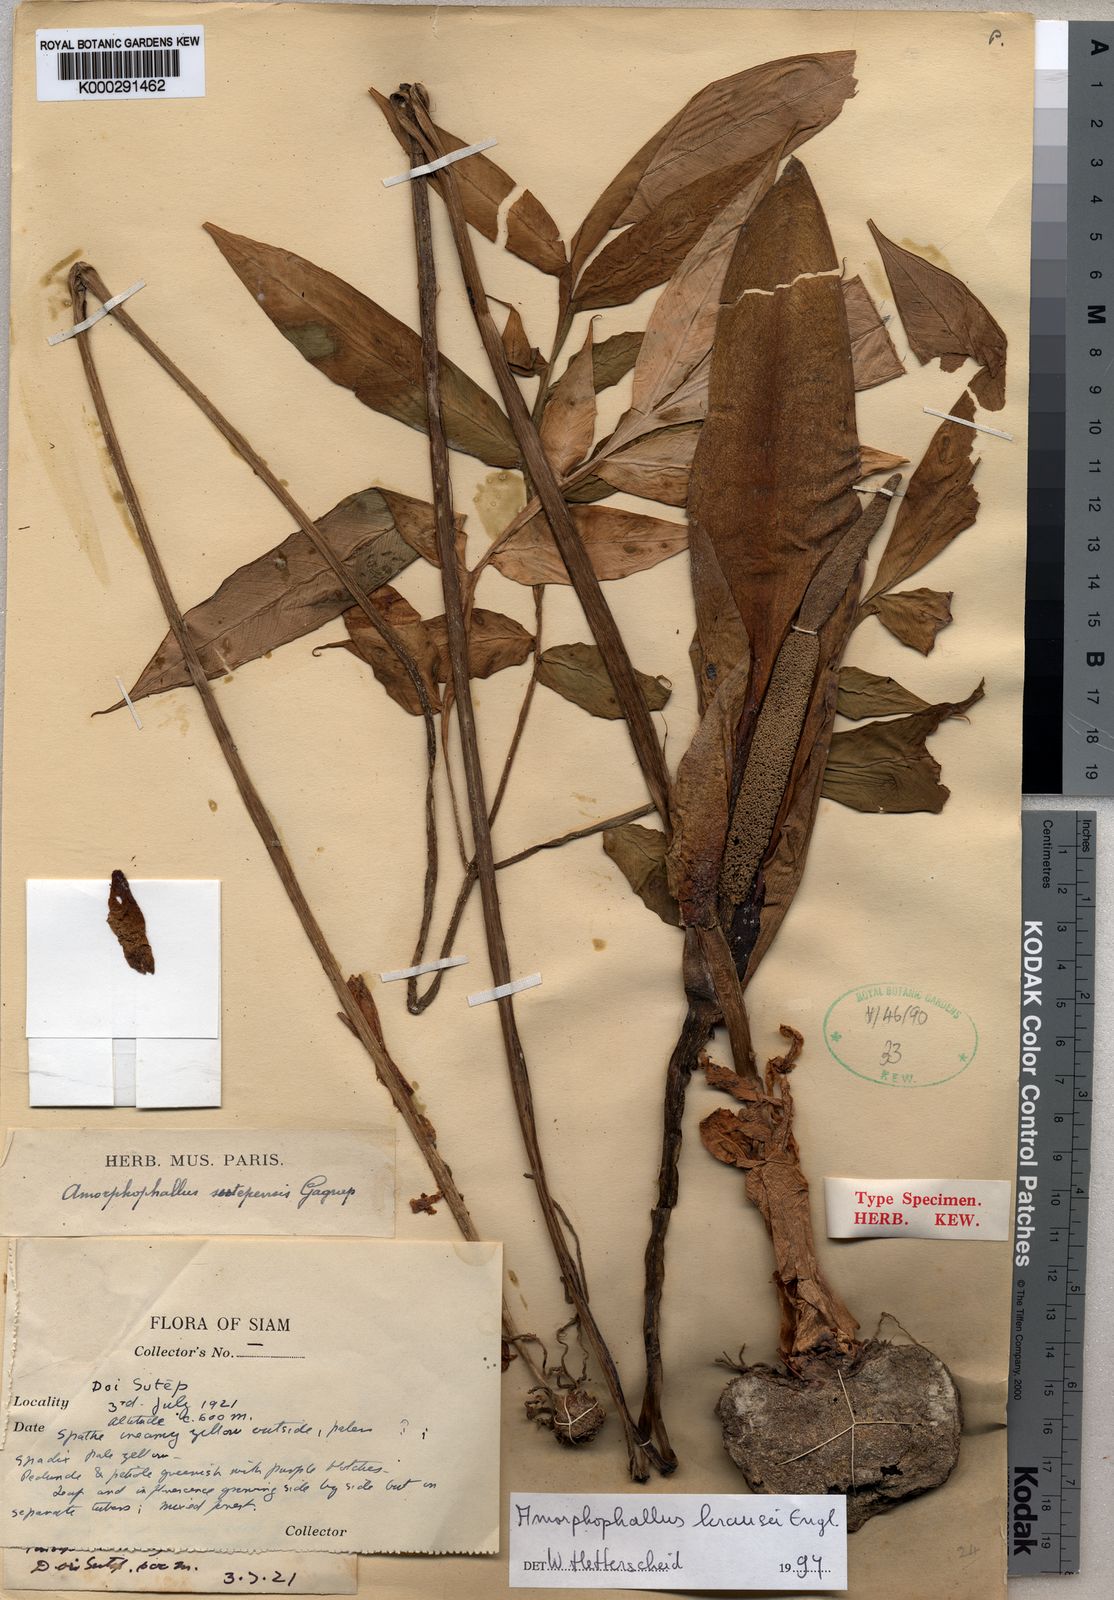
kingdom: Plantae
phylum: Tracheophyta
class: Liliopsida
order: Alismatales
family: Araceae
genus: Amorphophallus
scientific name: Amorphophallus krausei
